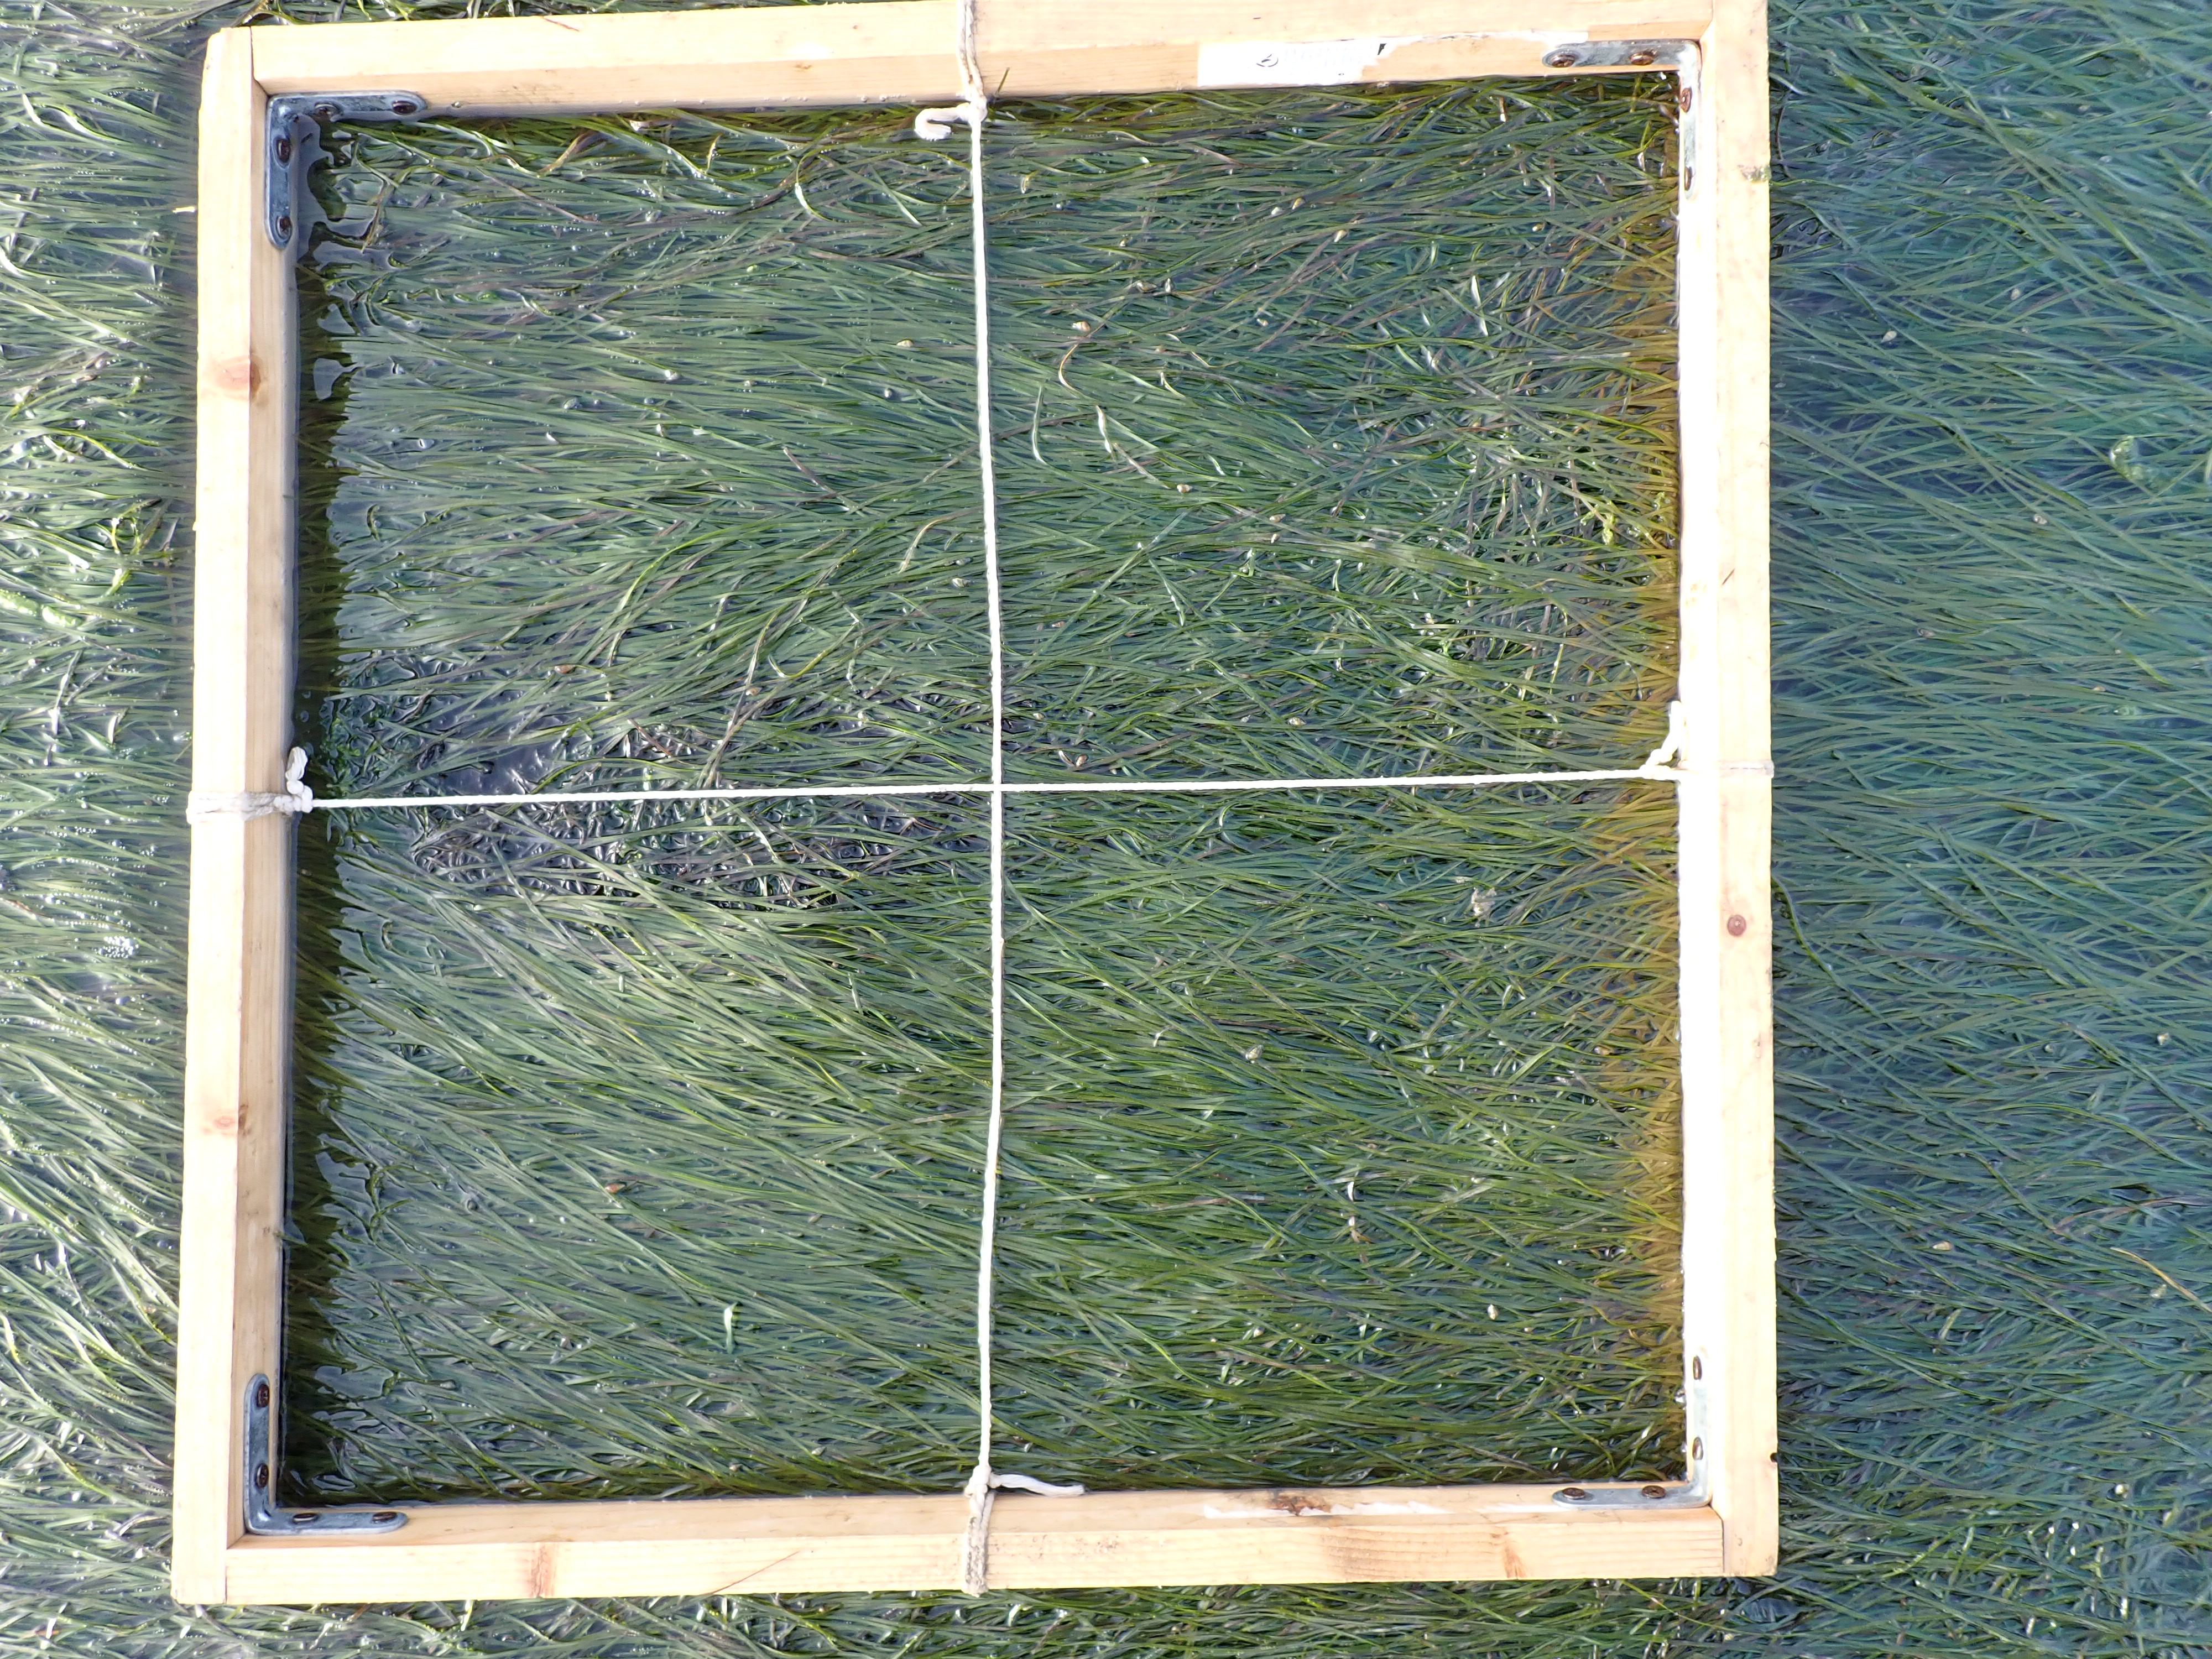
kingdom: Plantae
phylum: Tracheophyta
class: Liliopsida
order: Alismatales
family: Zosteraceae
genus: Zostera
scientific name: Zostera noltii
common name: Dwarf eelgrass
